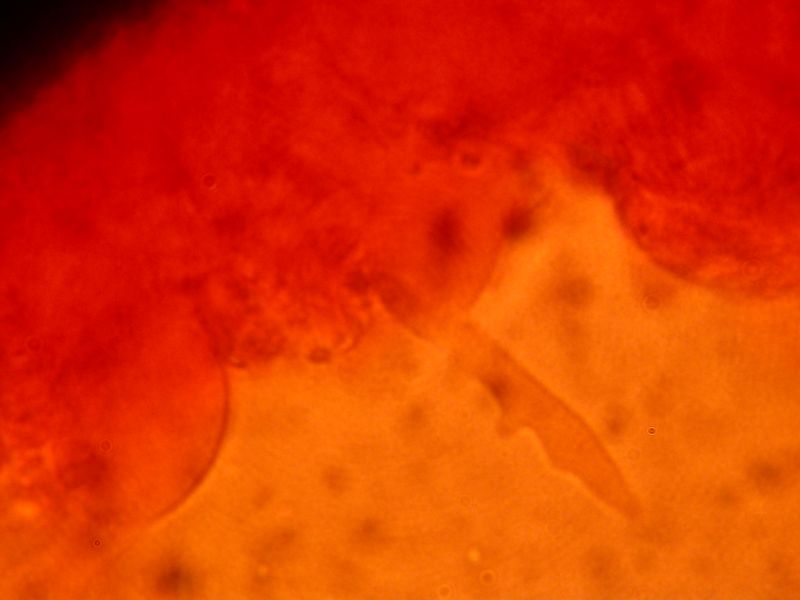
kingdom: Fungi
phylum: Basidiomycota
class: Agaricomycetes
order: Agaricales
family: Mycenaceae
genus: Mycena
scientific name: Mycena aetites
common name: plæne-huesvamp
